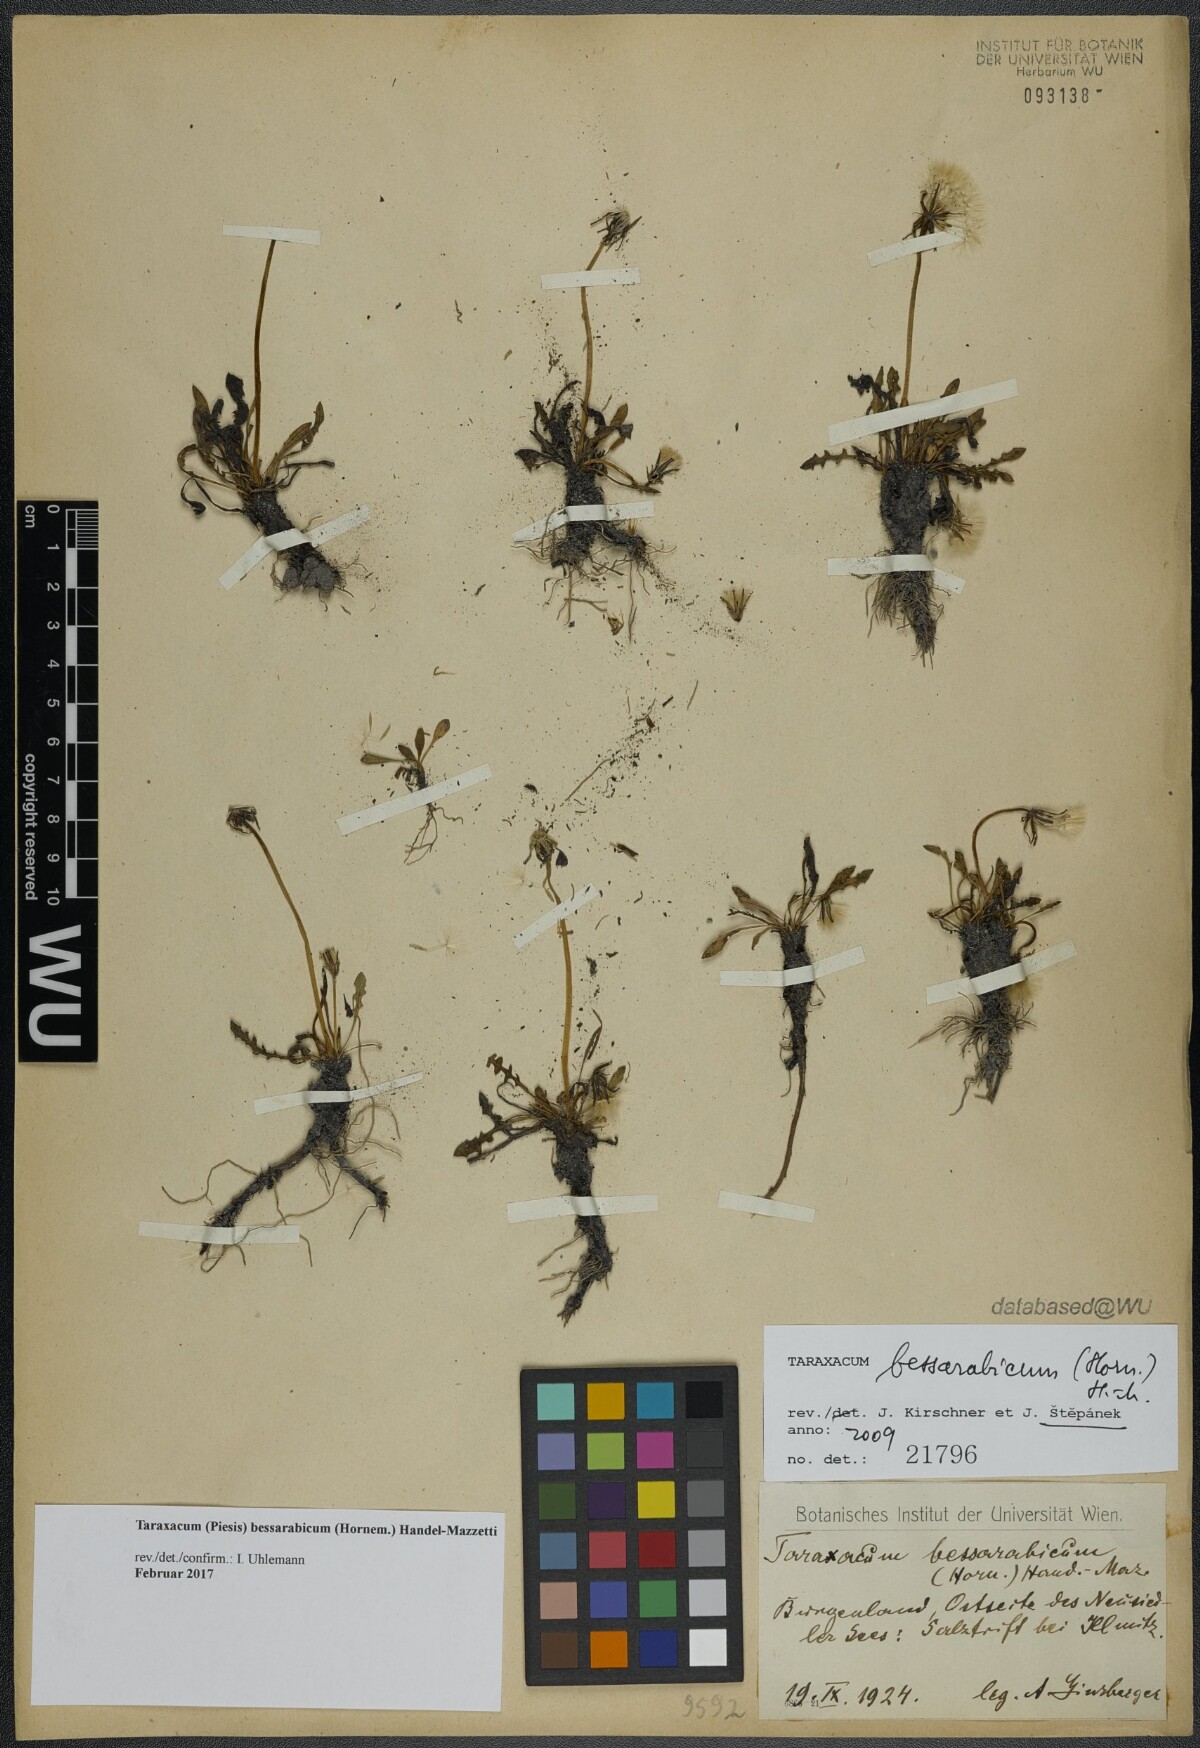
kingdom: Plantae
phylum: Tracheophyta
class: Magnoliopsida
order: Asterales
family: Asteraceae
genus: Taraxacum
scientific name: Taraxacum bessarabicum
